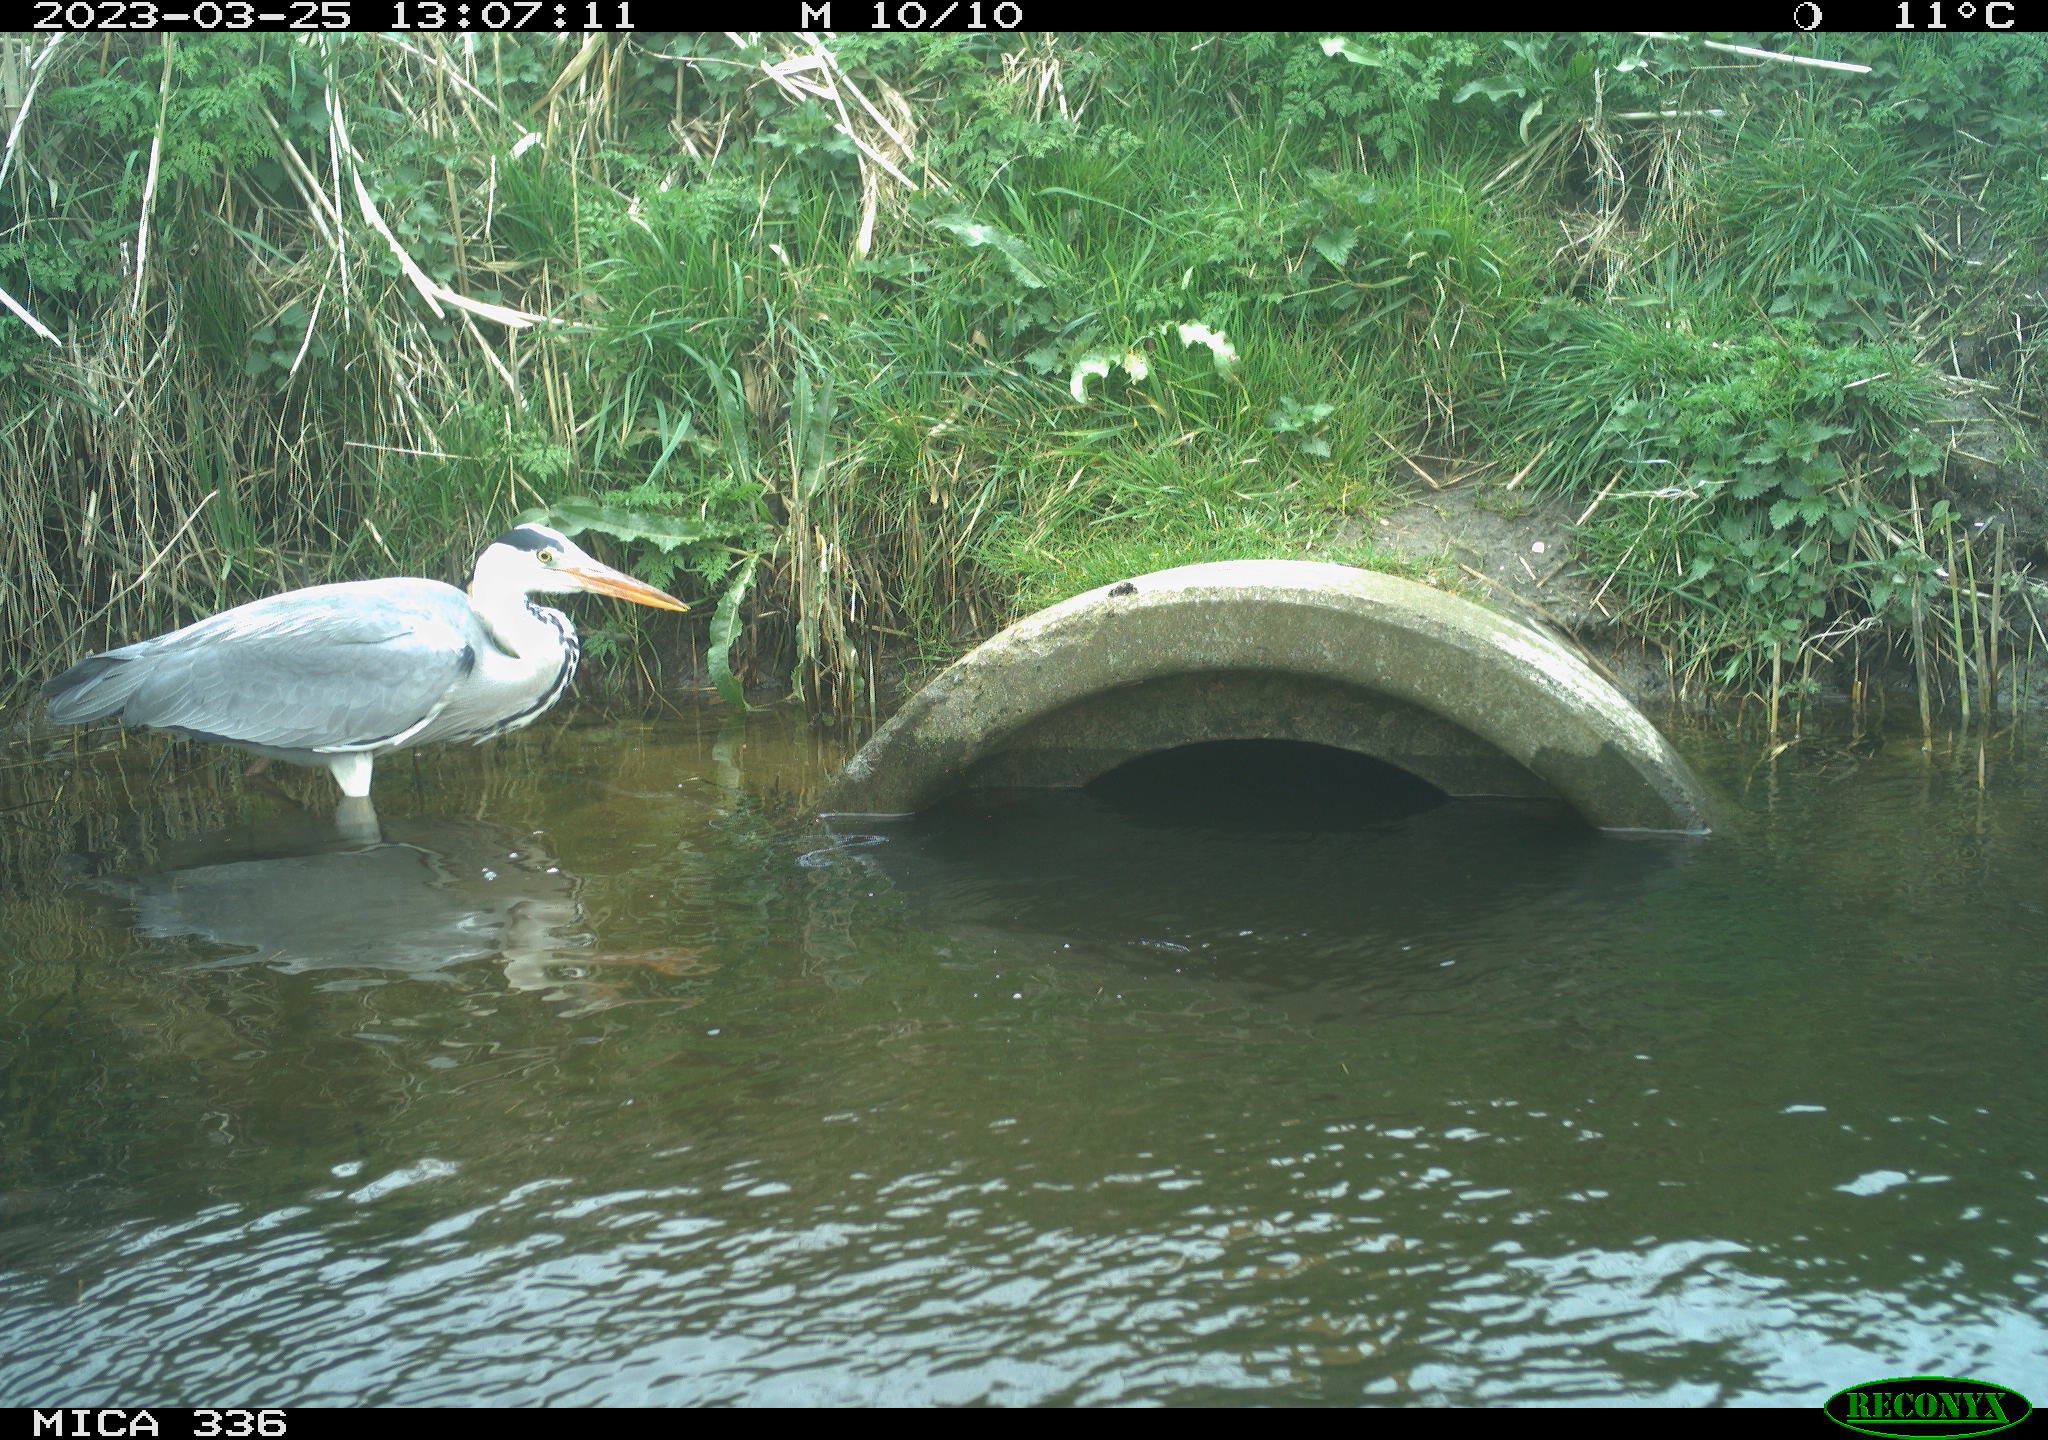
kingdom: Animalia
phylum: Chordata
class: Aves
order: Pelecaniformes
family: Ardeidae
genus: Ardea
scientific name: Ardea
